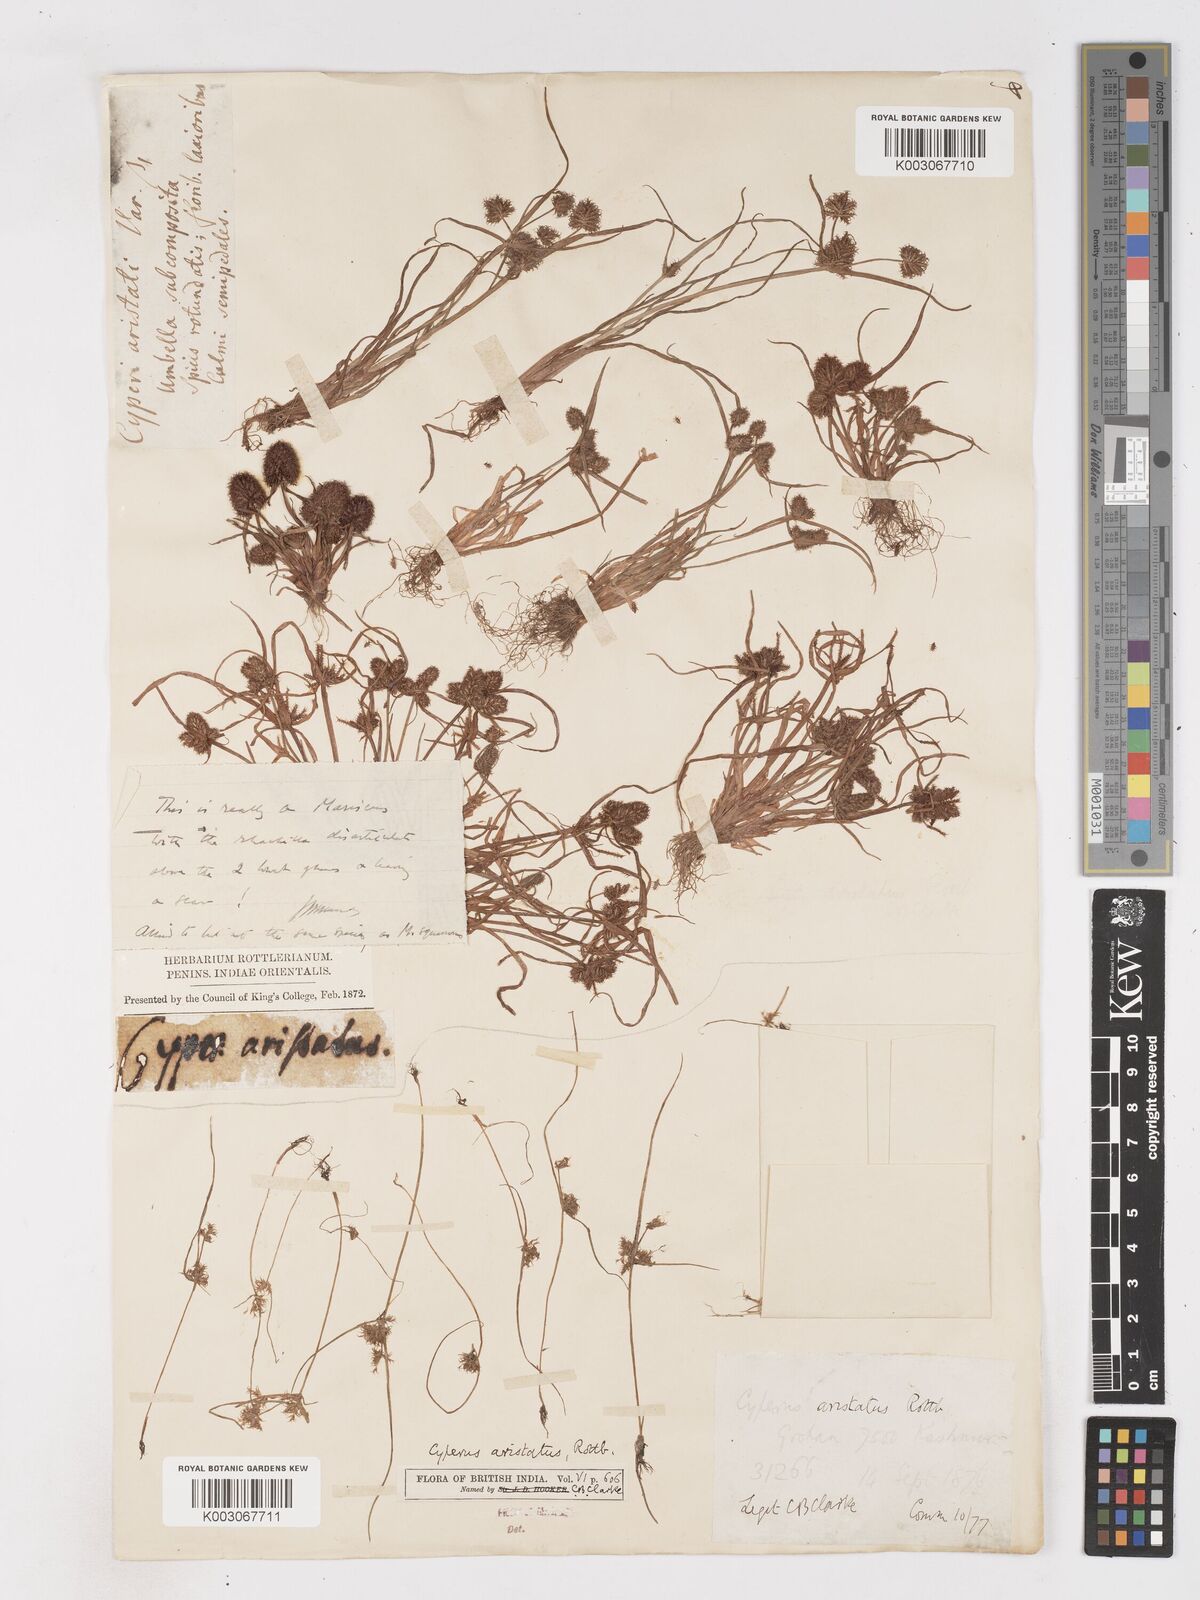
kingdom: Plantae
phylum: Tracheophyta
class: Liliopsida
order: Poales
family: Cyperaceae
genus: Cyperus
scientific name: Cyperus squarrosus
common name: Awned cyperus
